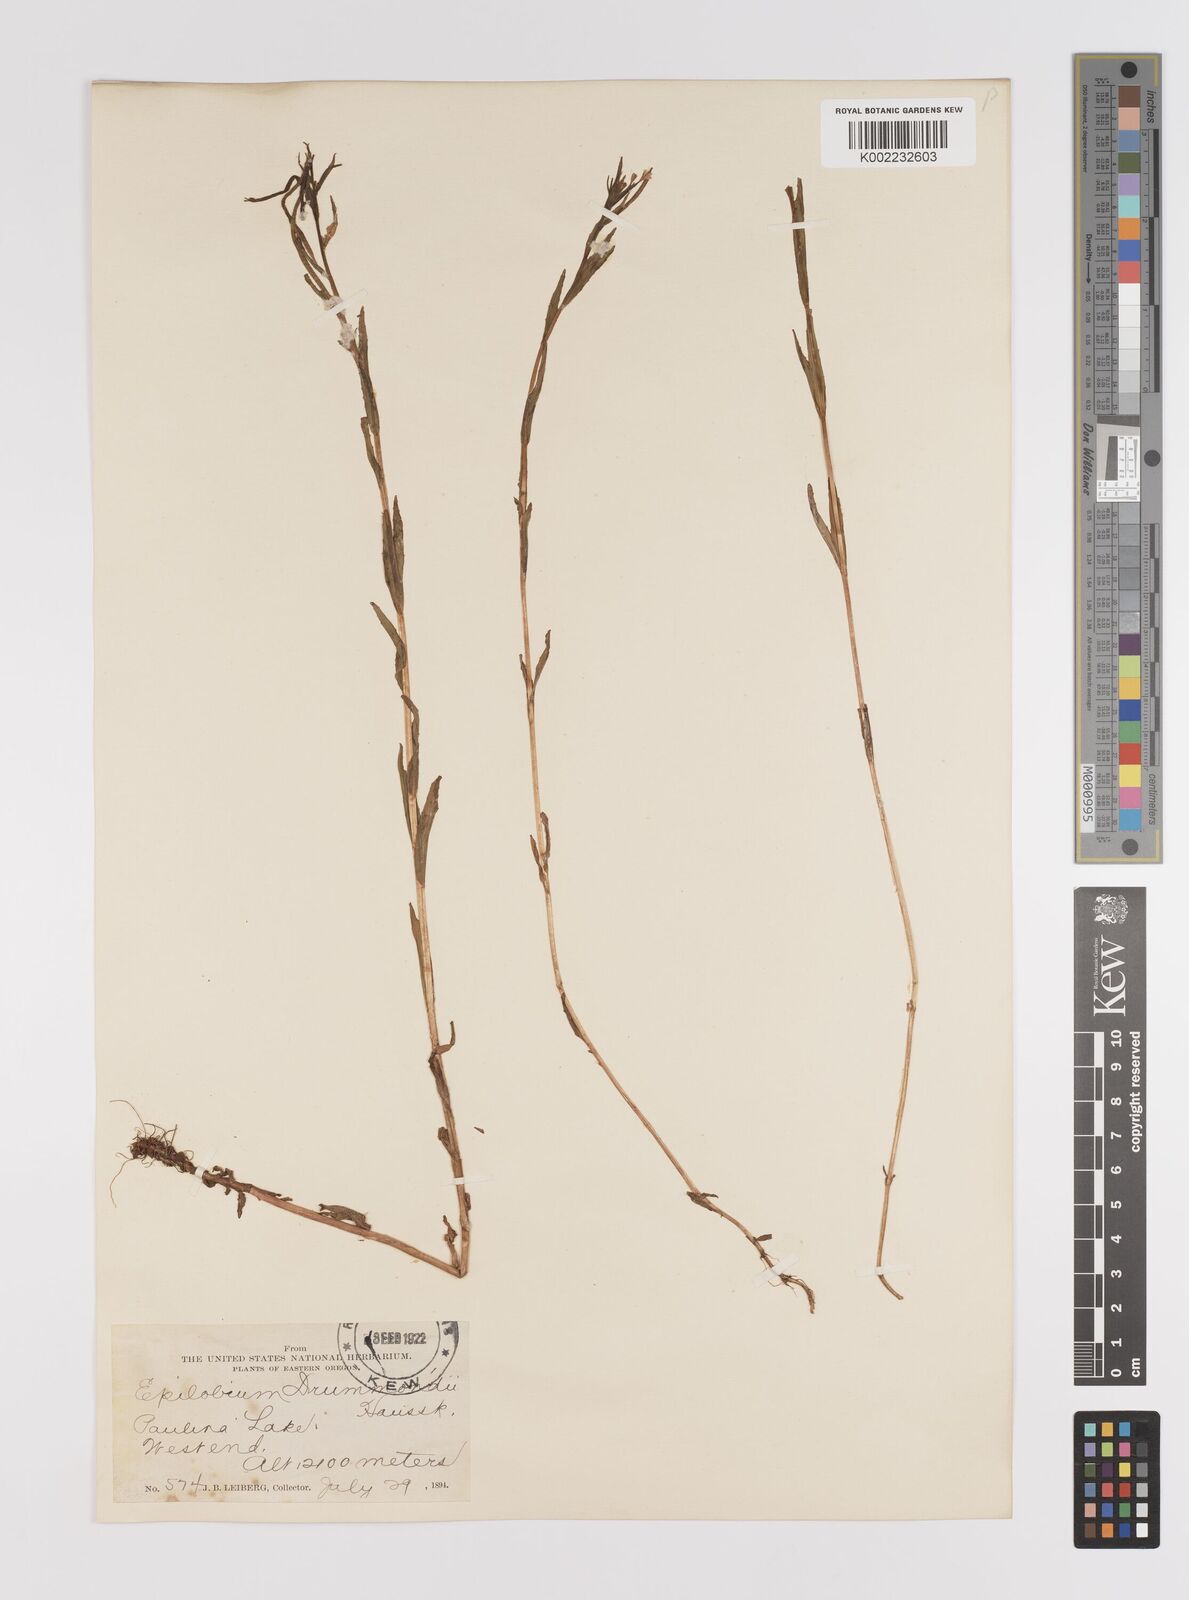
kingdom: Plantae
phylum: Tracheophyta
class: Magnoliopsida
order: Myrtales
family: Onagraceae
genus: Epilobium
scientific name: Epilobium hallianum
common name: Hall's willowherb
